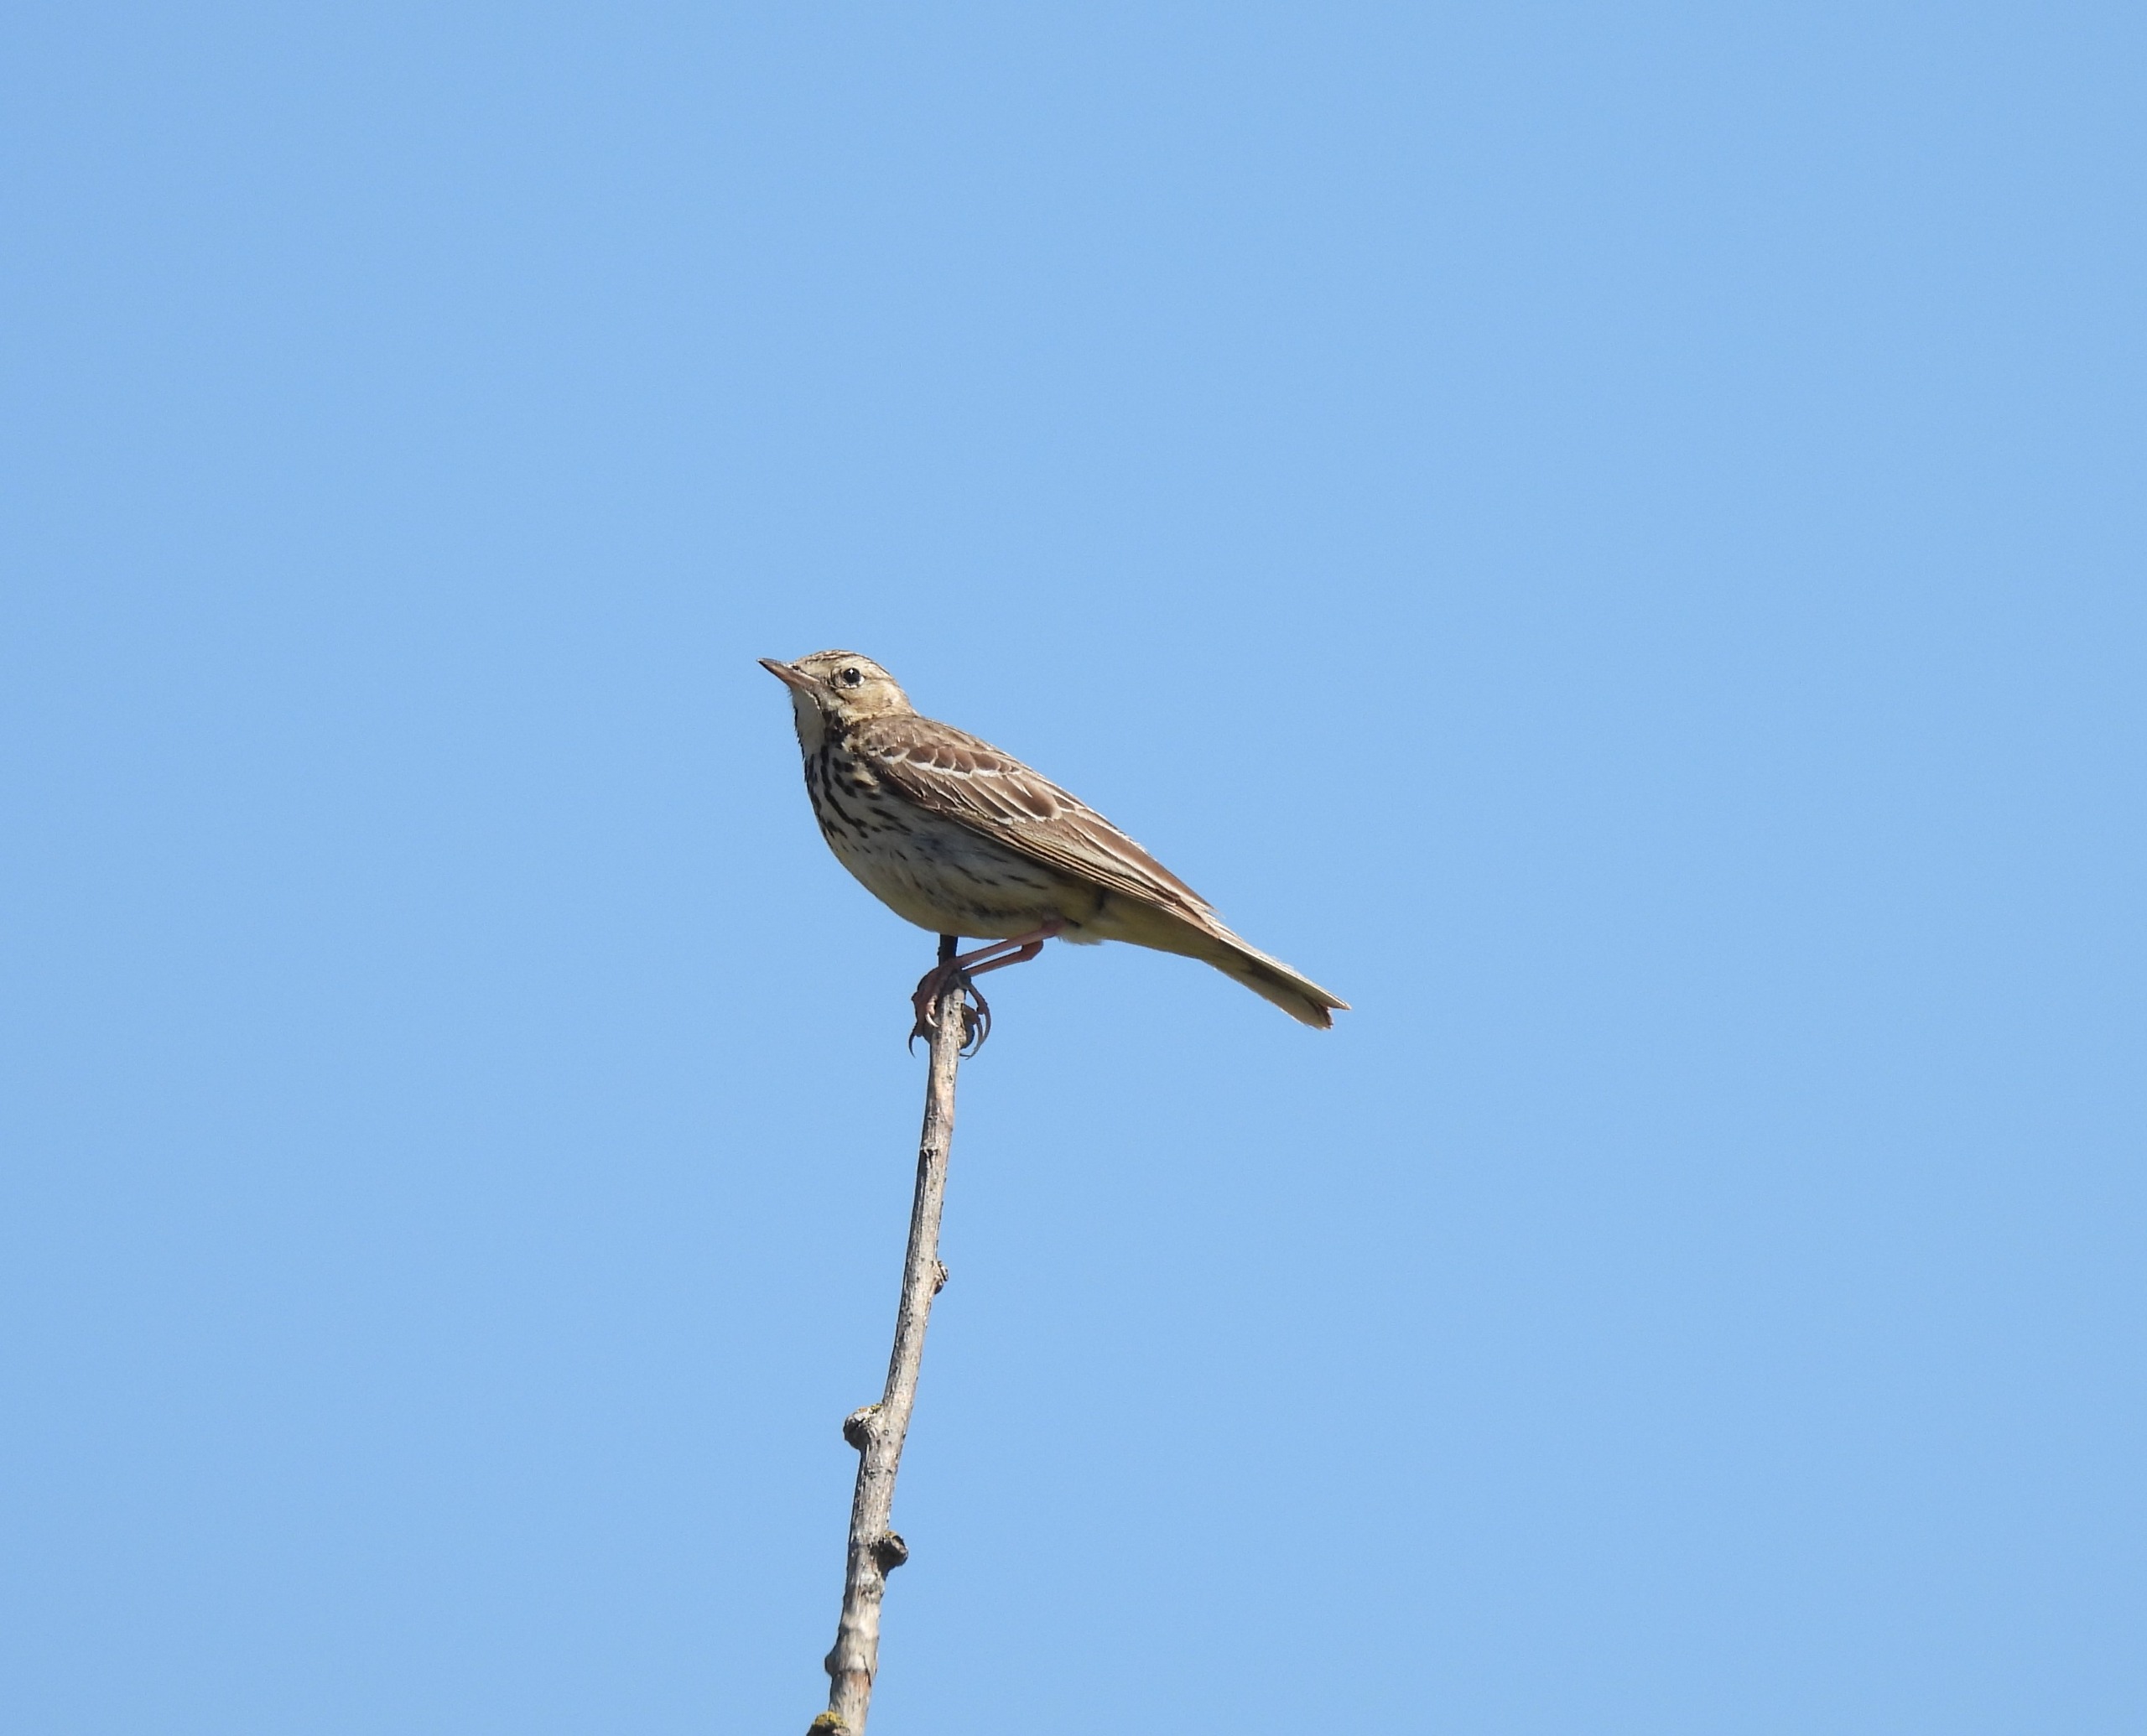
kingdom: Animalia
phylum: Chordata
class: Aves
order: Passeriformes
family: Motacillidae
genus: Anthus
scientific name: Anthus trivialis
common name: Skovpiber
